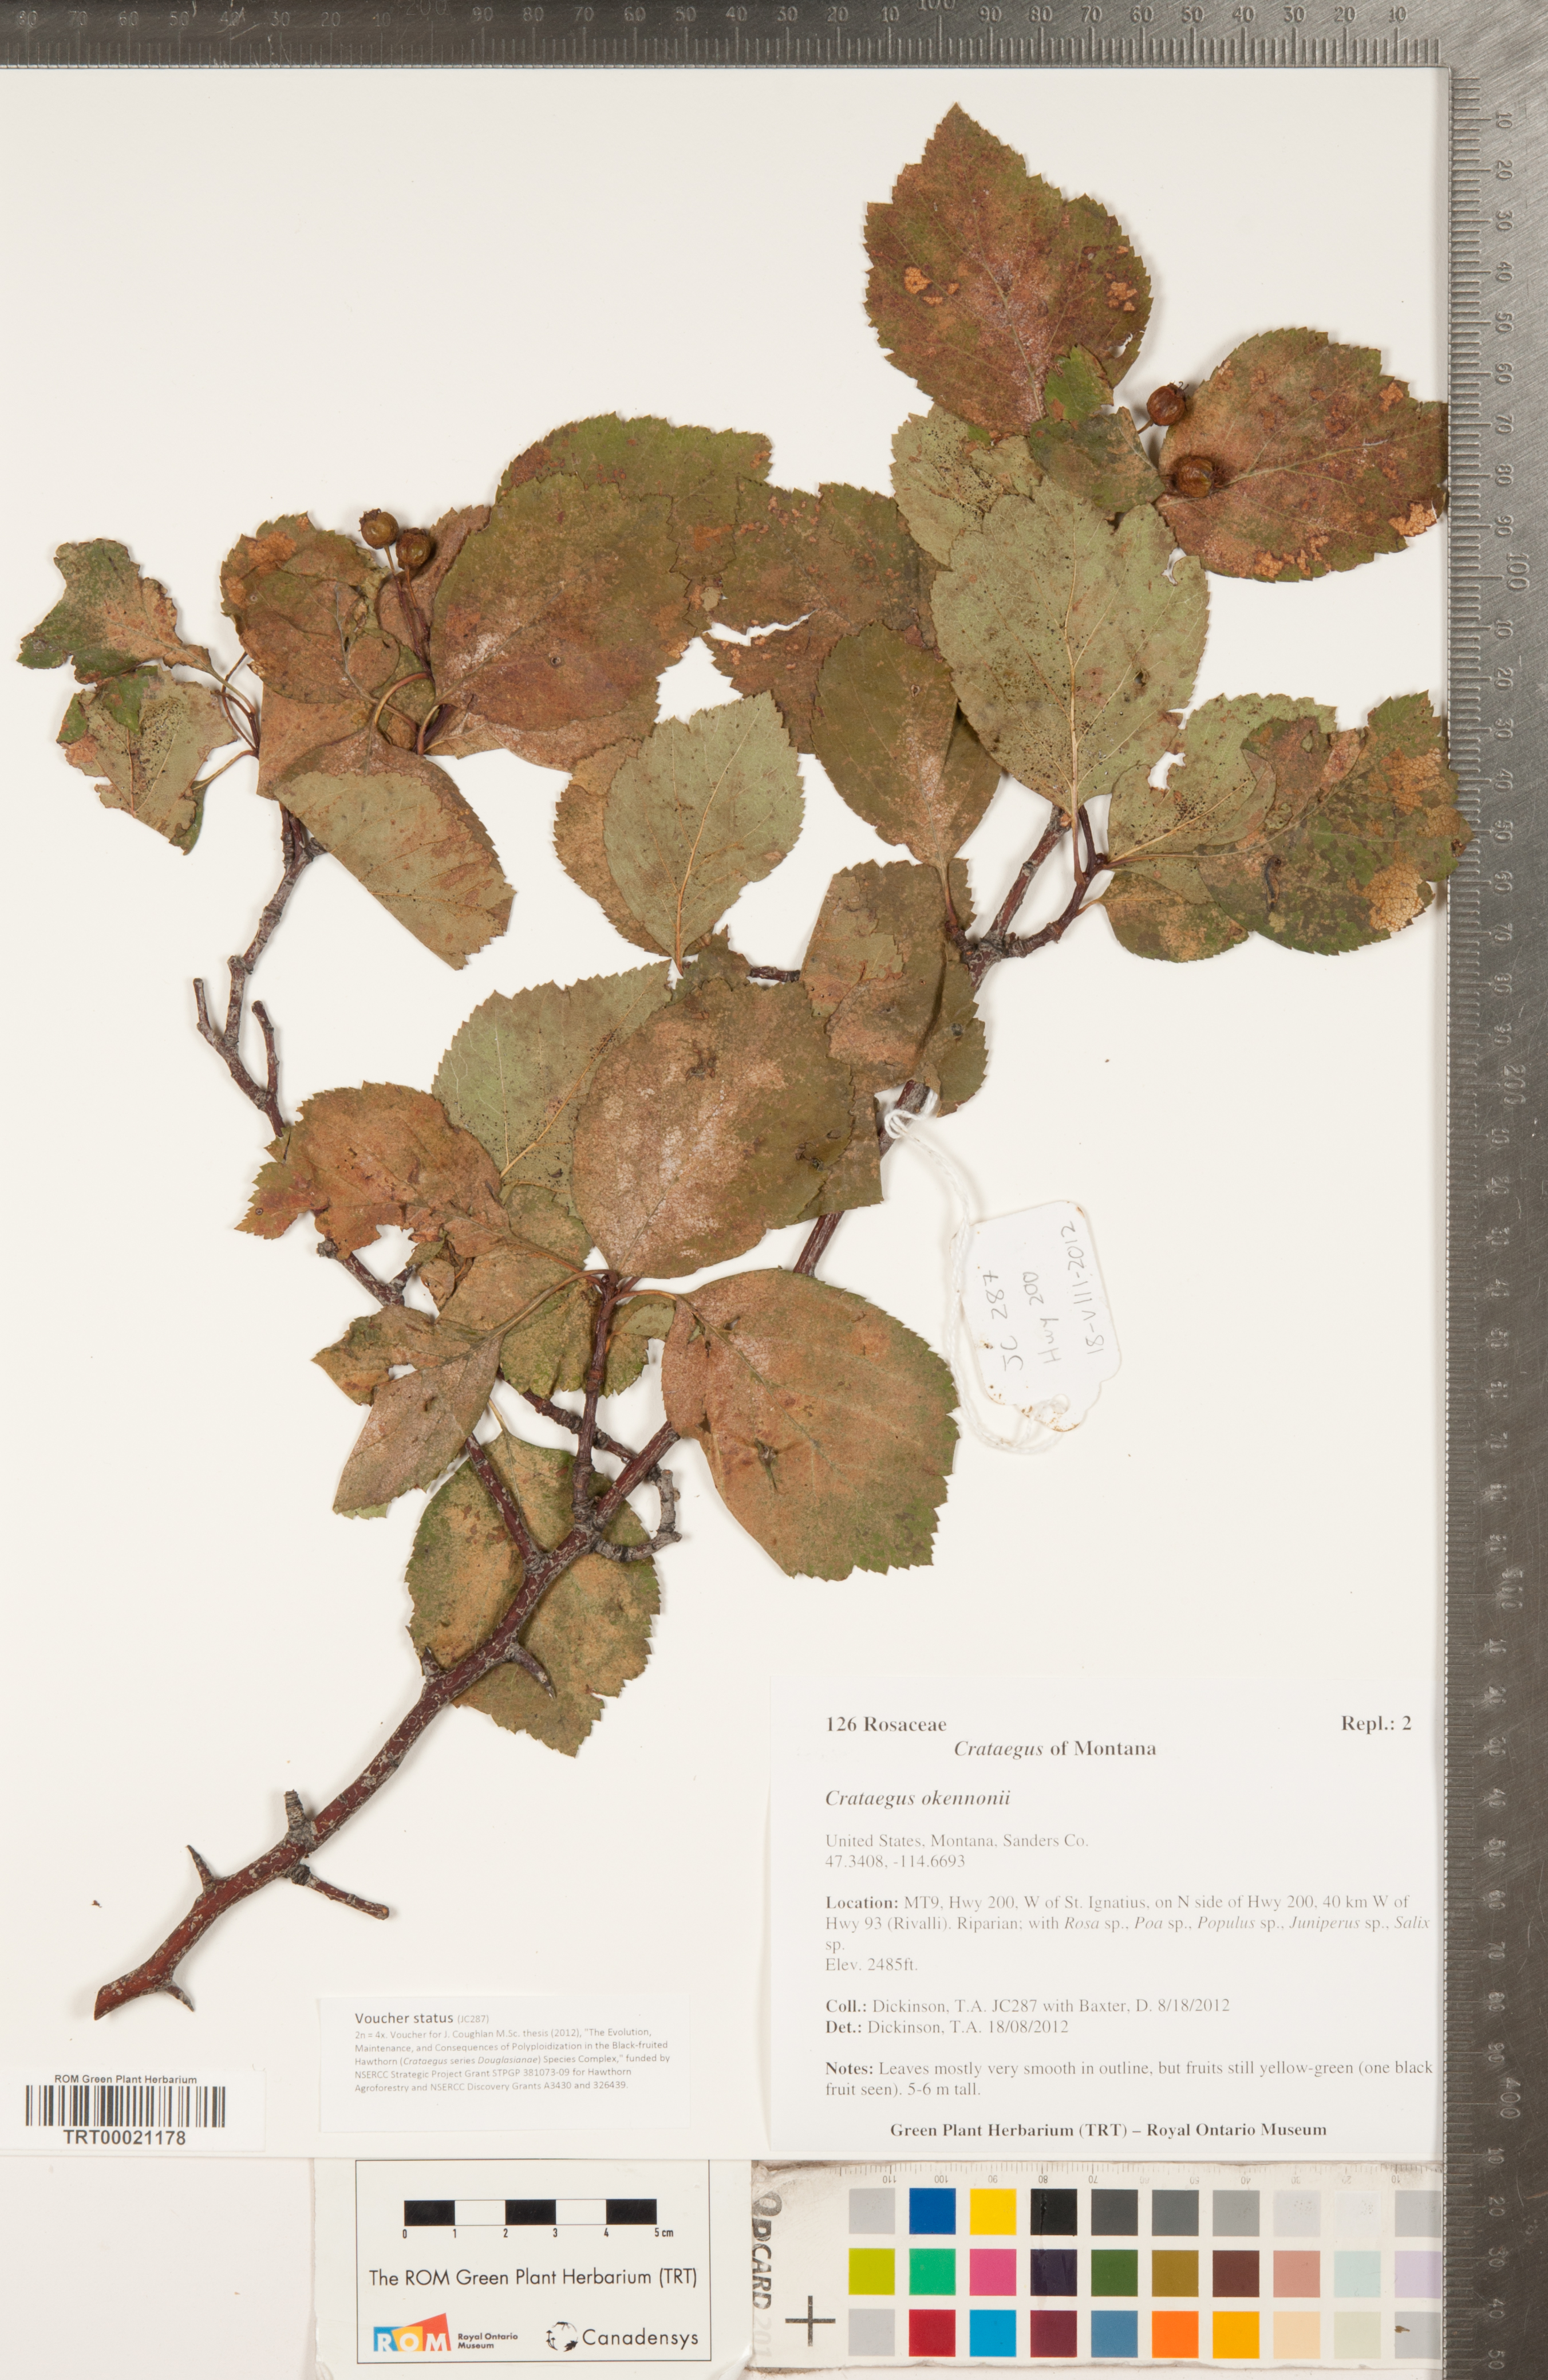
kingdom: Plantae
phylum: Tracheophyta
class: Magnoliopsida
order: Rosales
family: Rosaceae
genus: Crataegus
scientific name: Crataegus okennonii
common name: O'kennon's hawthorn
